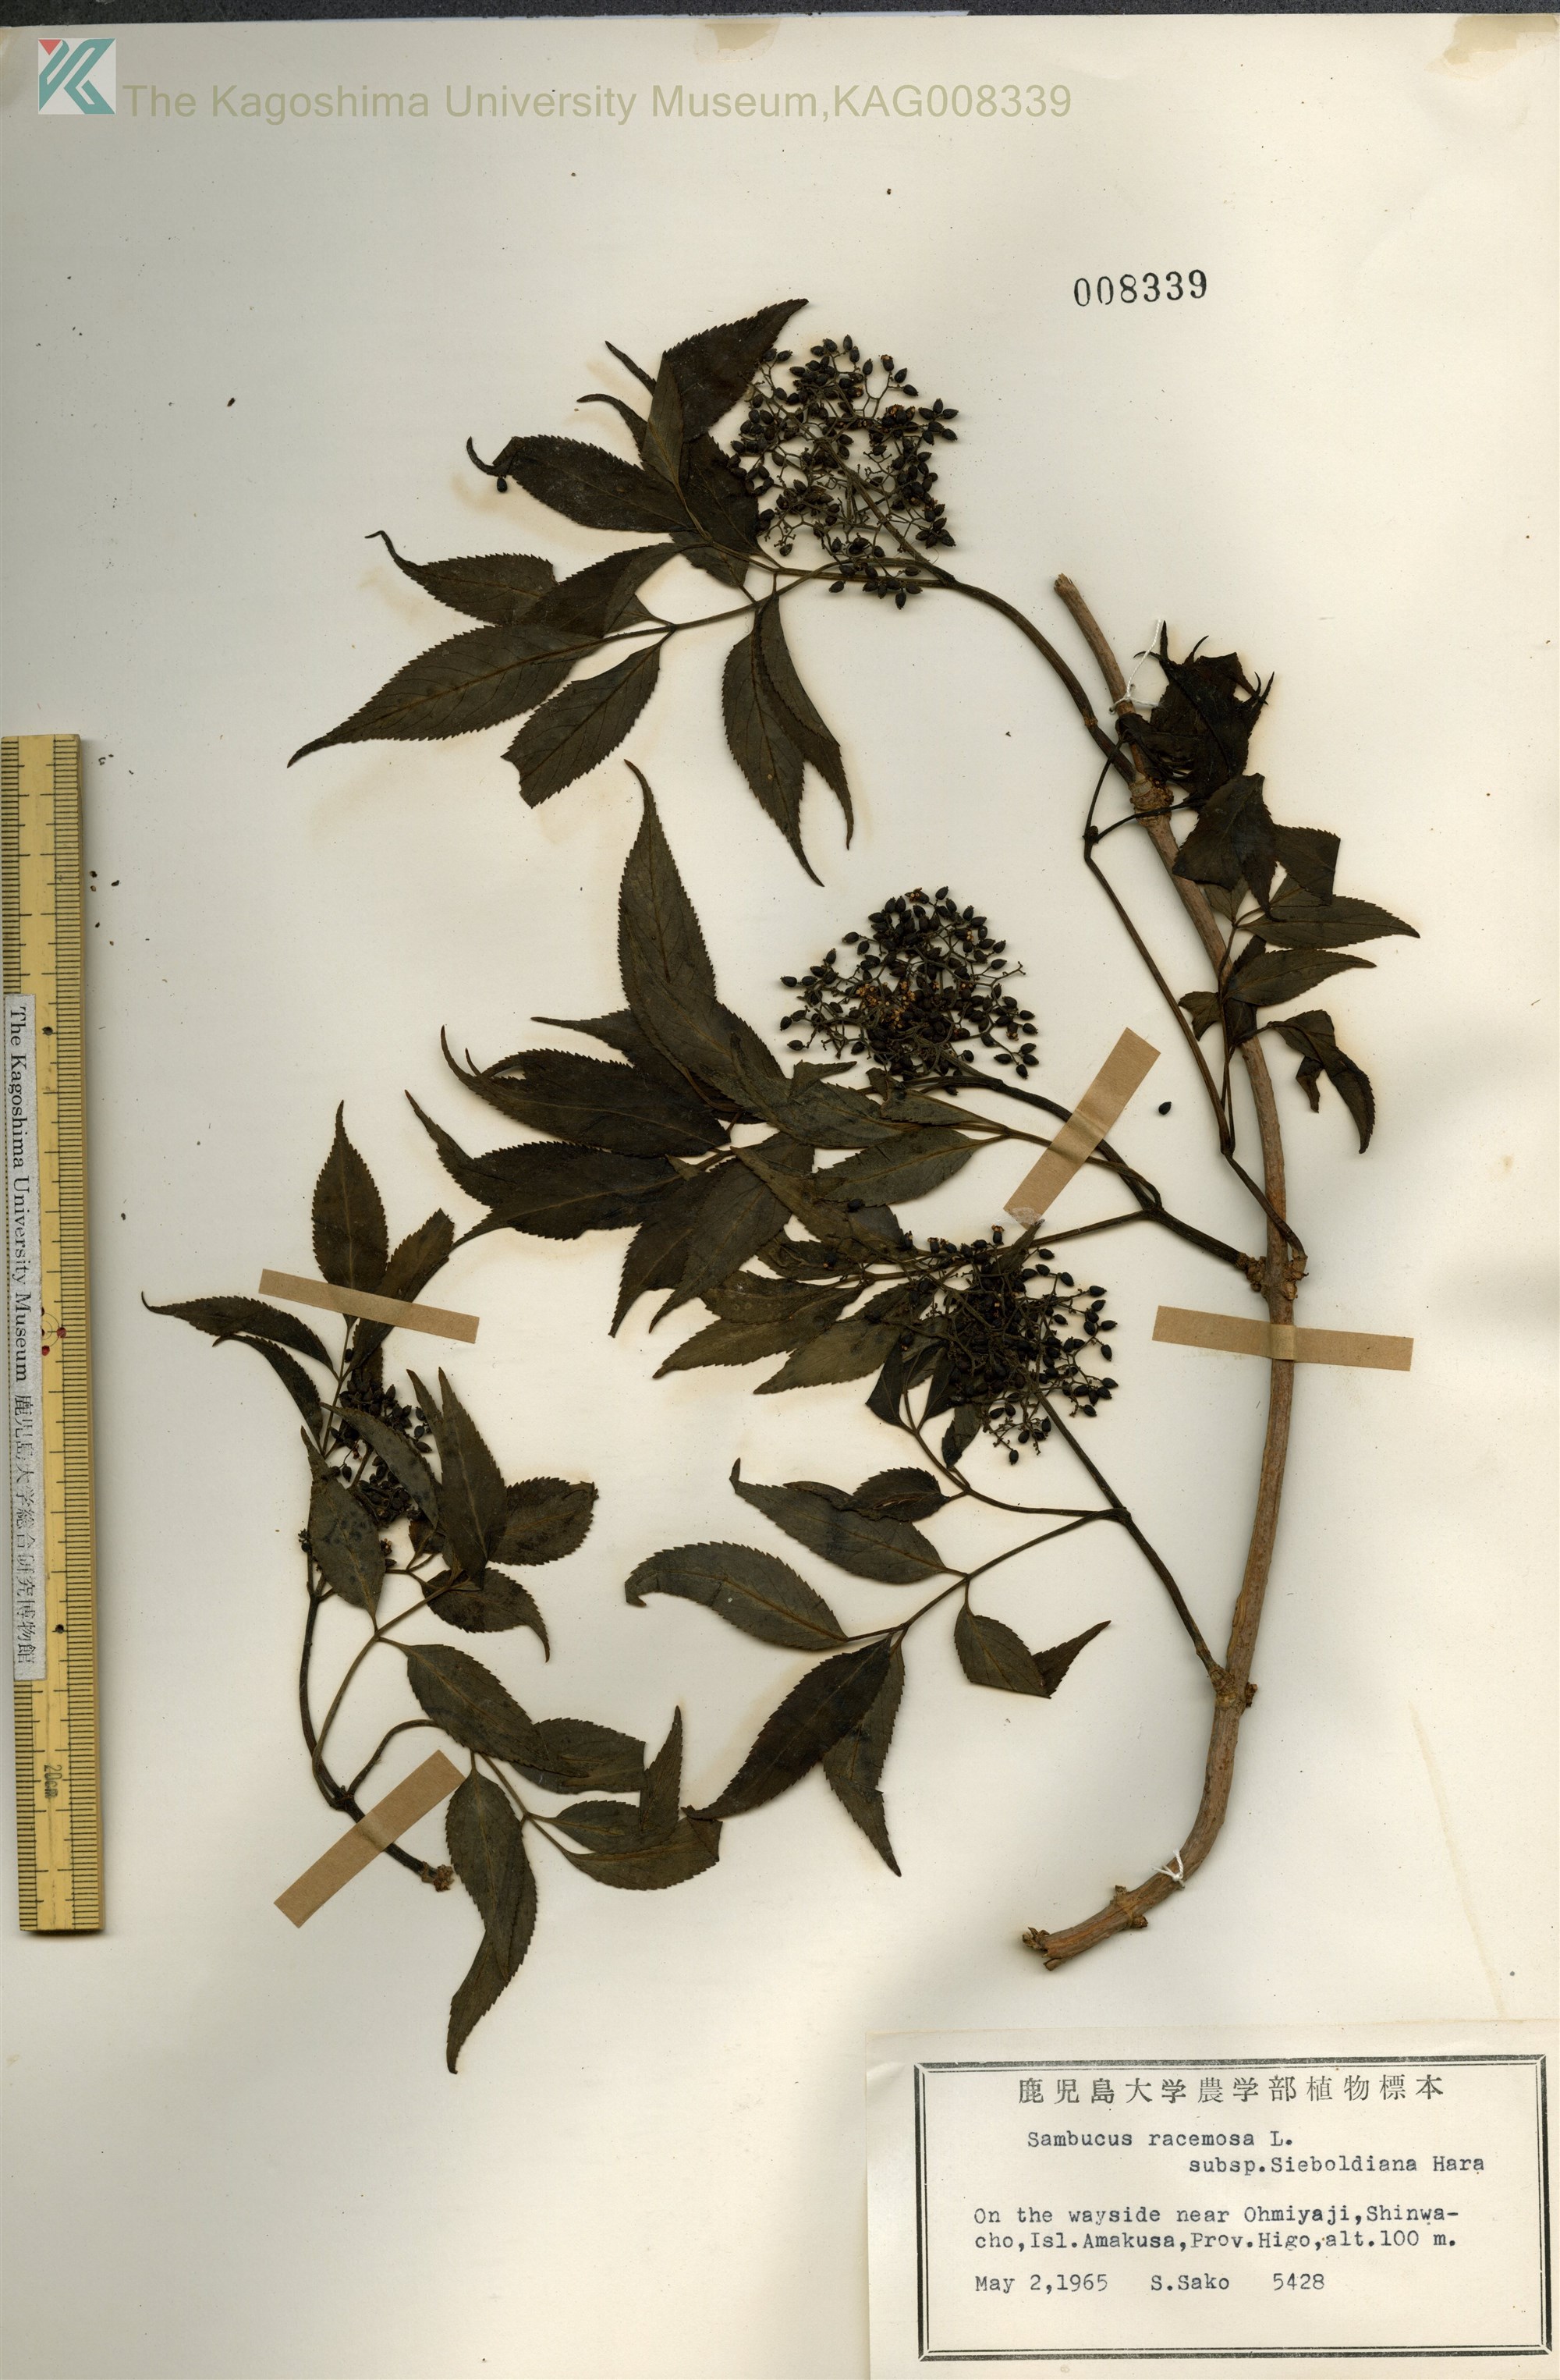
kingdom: Plantae
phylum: Tracheophyta
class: Magnoliopsida
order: Dipsacales
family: Viburnaceae
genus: Sambucus
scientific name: Sambucus sieboldiana
